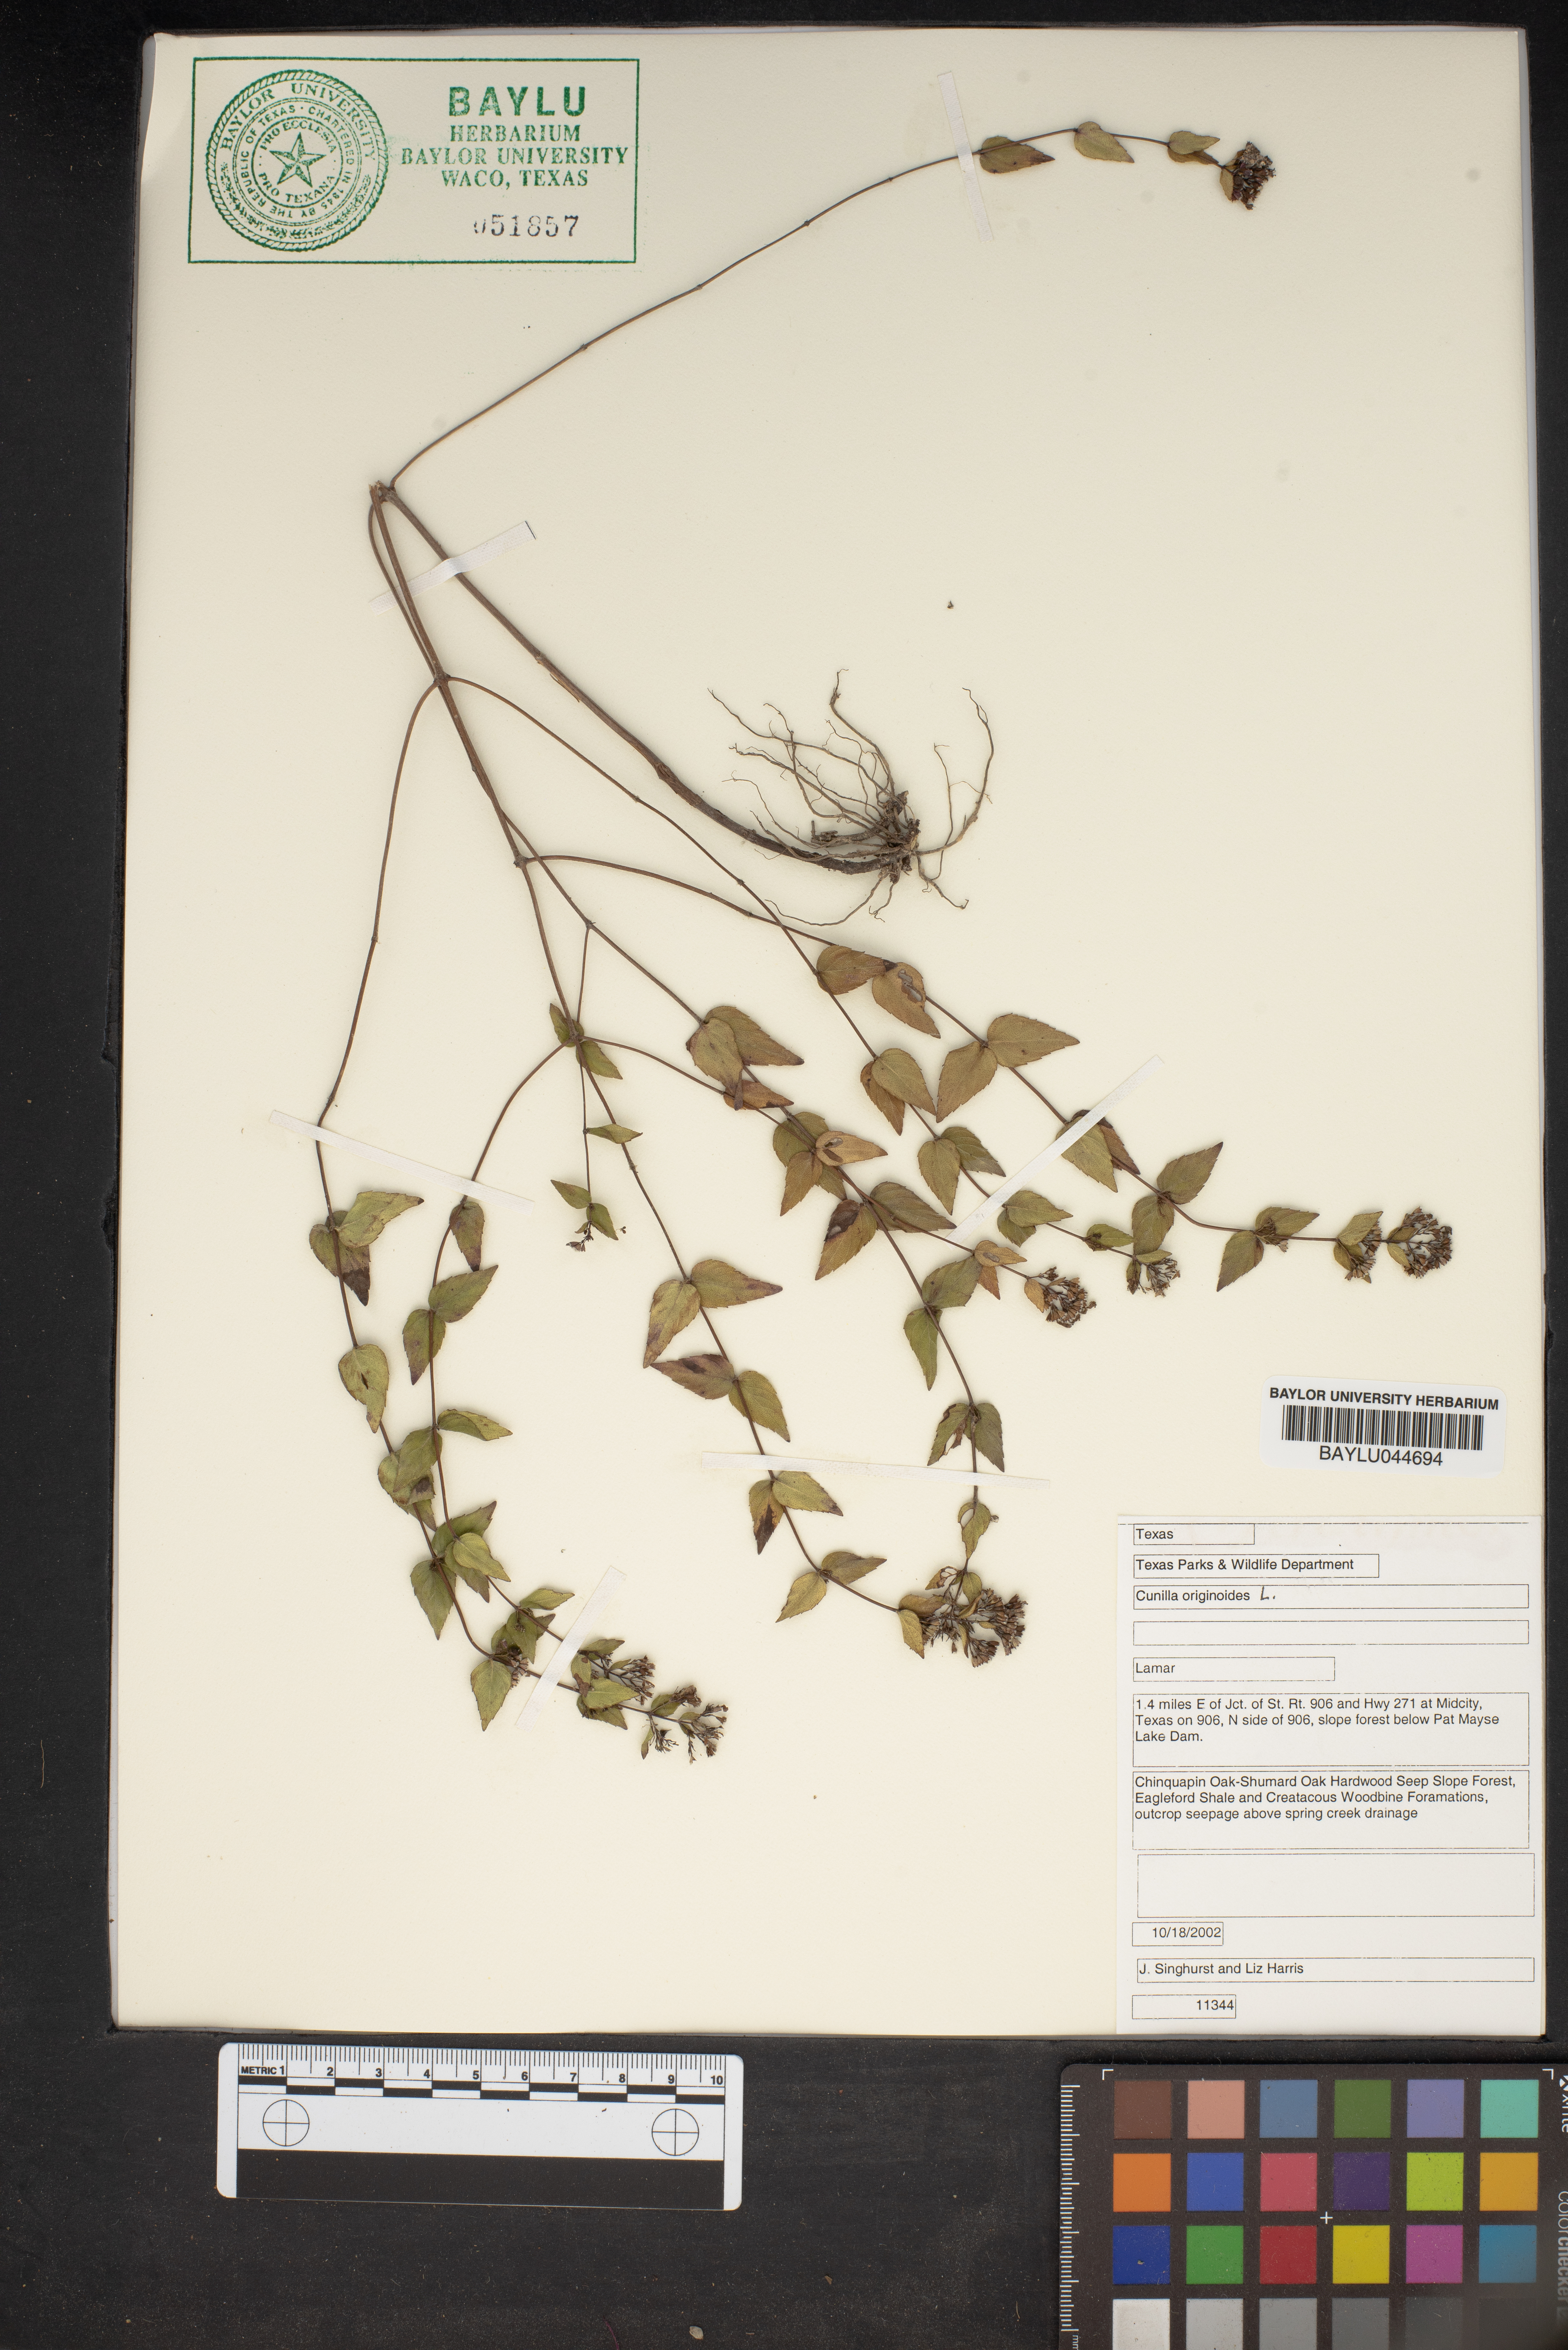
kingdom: Plantae
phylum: Tracheophyta
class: Magnoliopsida
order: Lamiales
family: Lamiaceae
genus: Cunila
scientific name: Cunila origanoides
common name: American dittany
